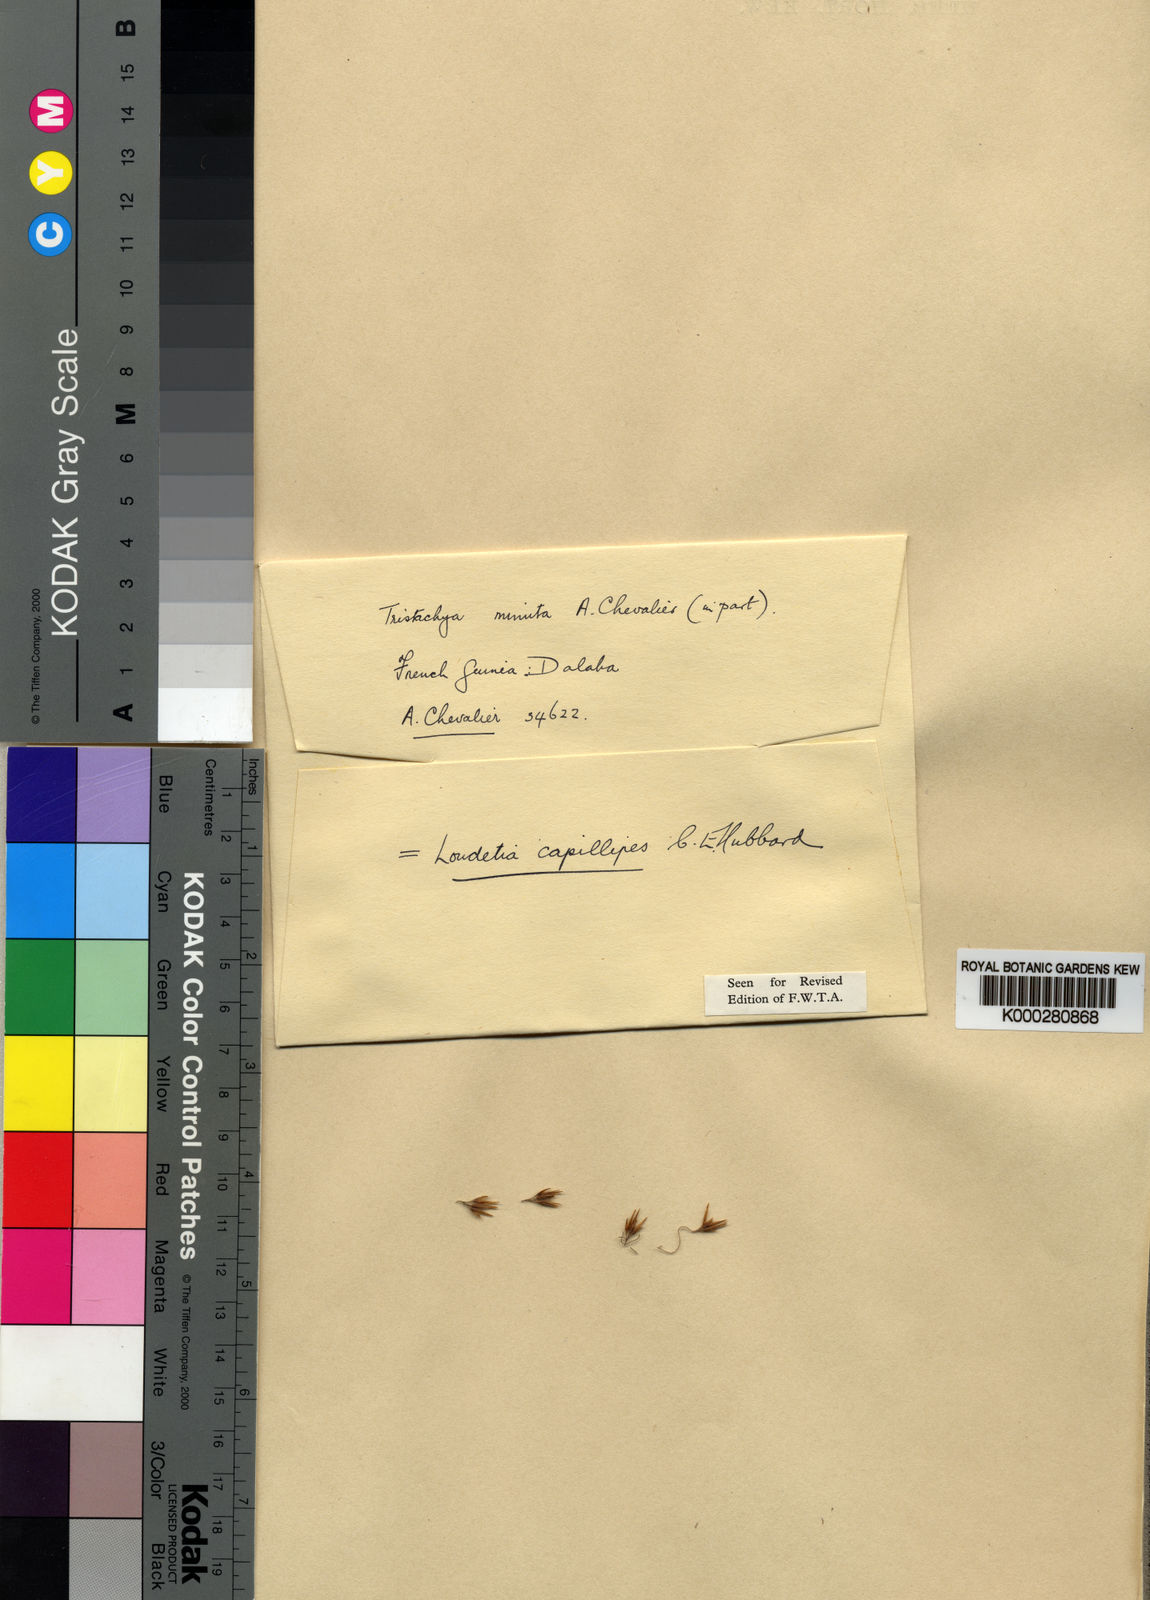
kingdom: Plantae
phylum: Tracheophyta
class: Liliopsida
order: Poales
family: Poaceae
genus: Loudetiopsis
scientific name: Loudetiopsis capillipes
